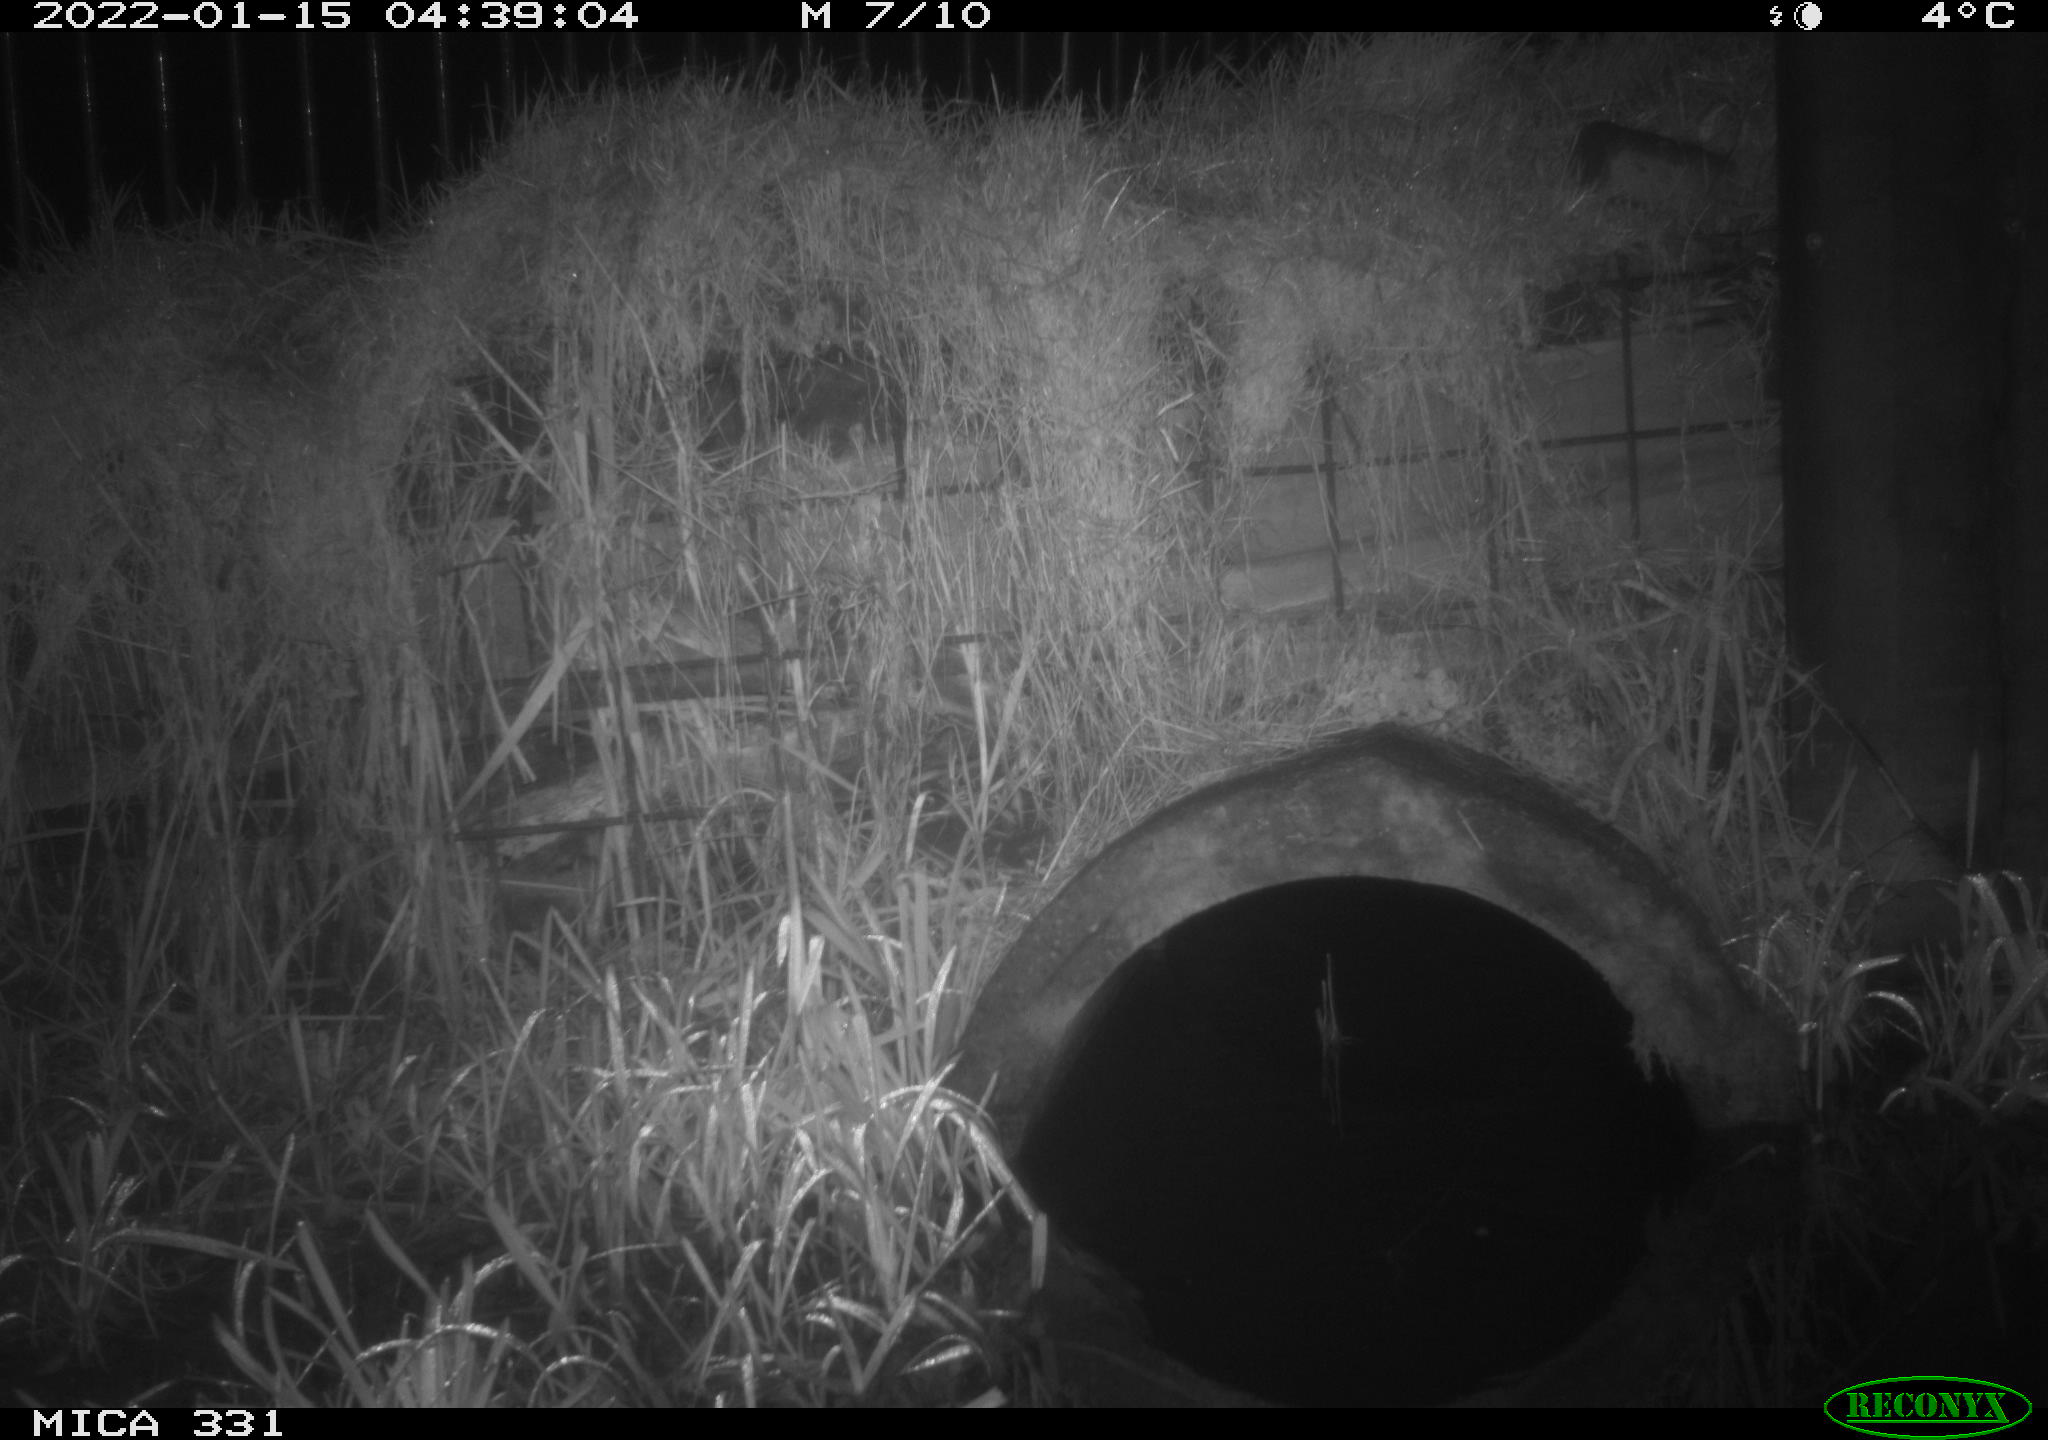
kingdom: Animalia
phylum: Chordata
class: Mammalia
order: Rodentia
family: Muridae
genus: Rattus
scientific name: Rattus norvegicus
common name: Brown rat
